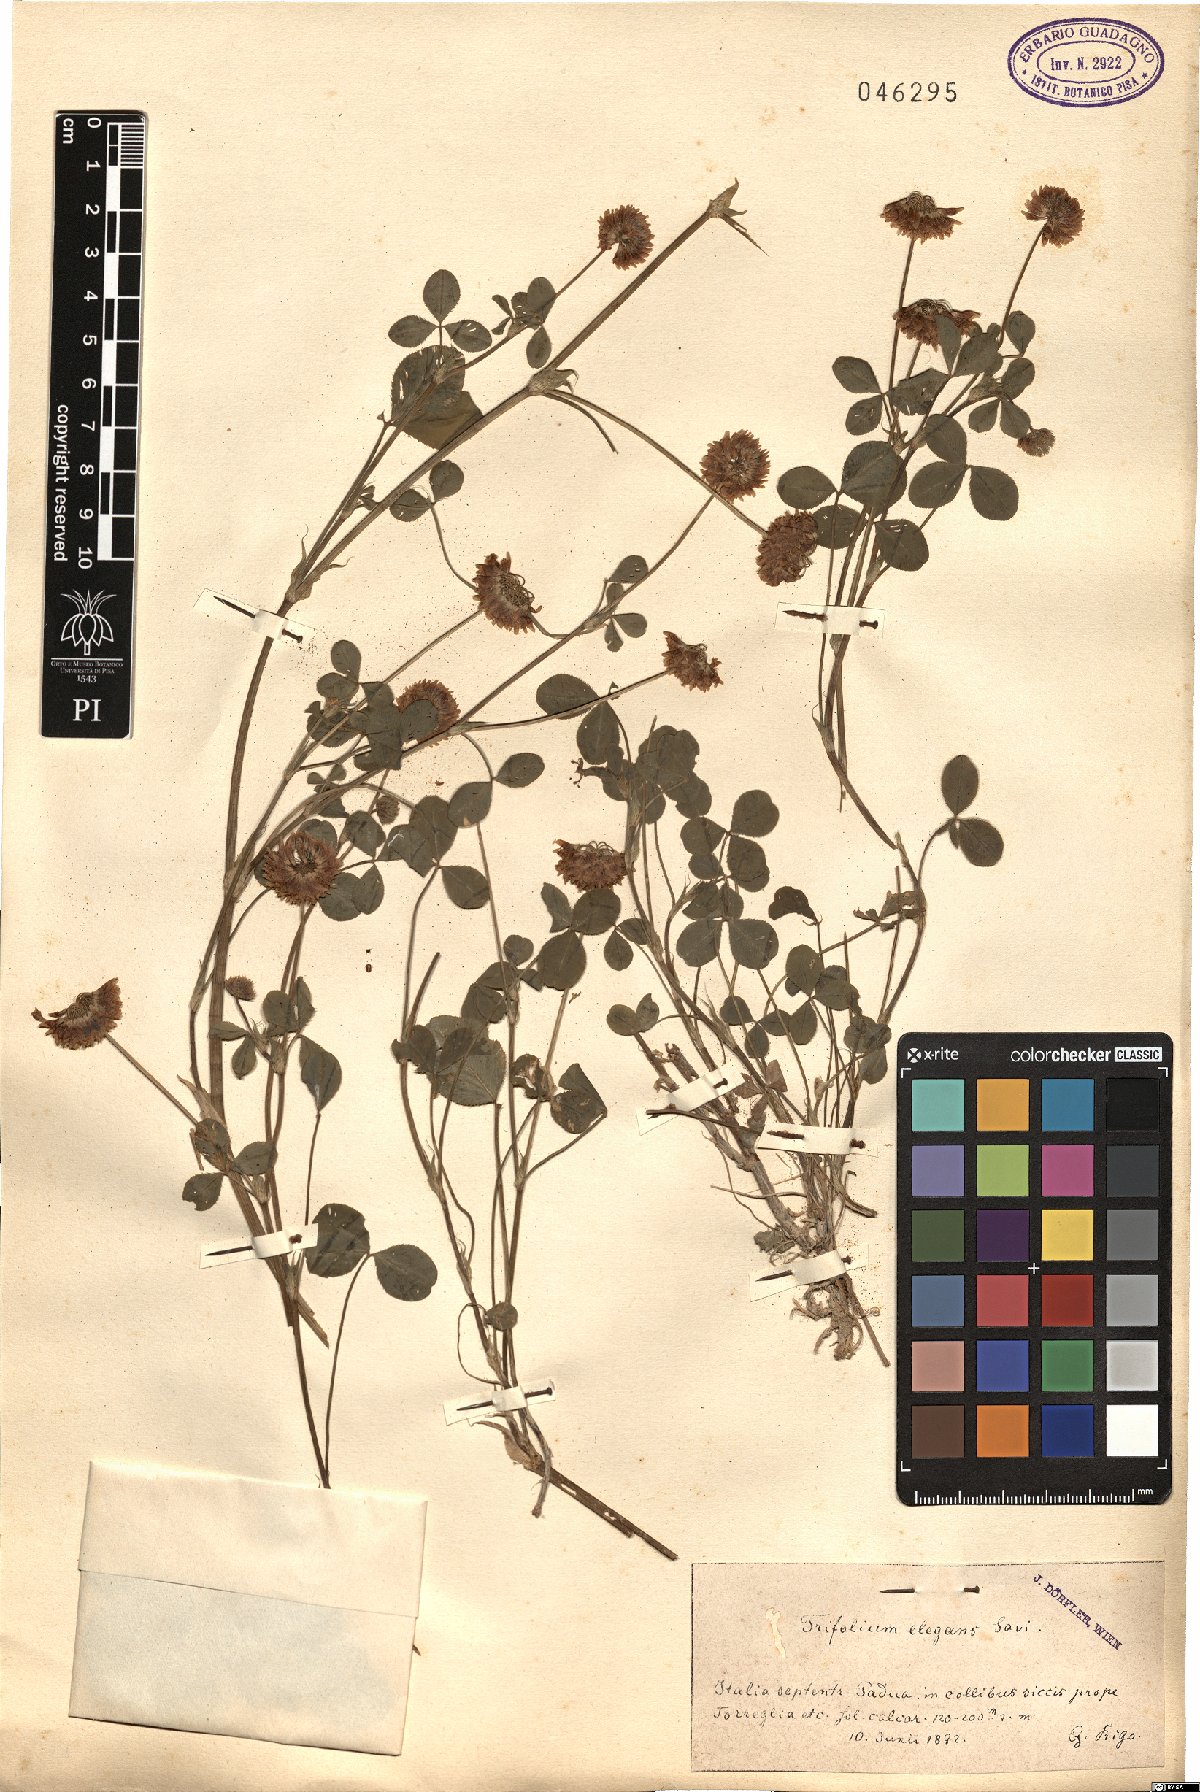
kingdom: Plantae
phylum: Tracheophyta
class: Magnoliopsida
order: Fabales
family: Fabaceae
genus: Trifolium
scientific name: Trifolium hybridum
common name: Alsike clover
